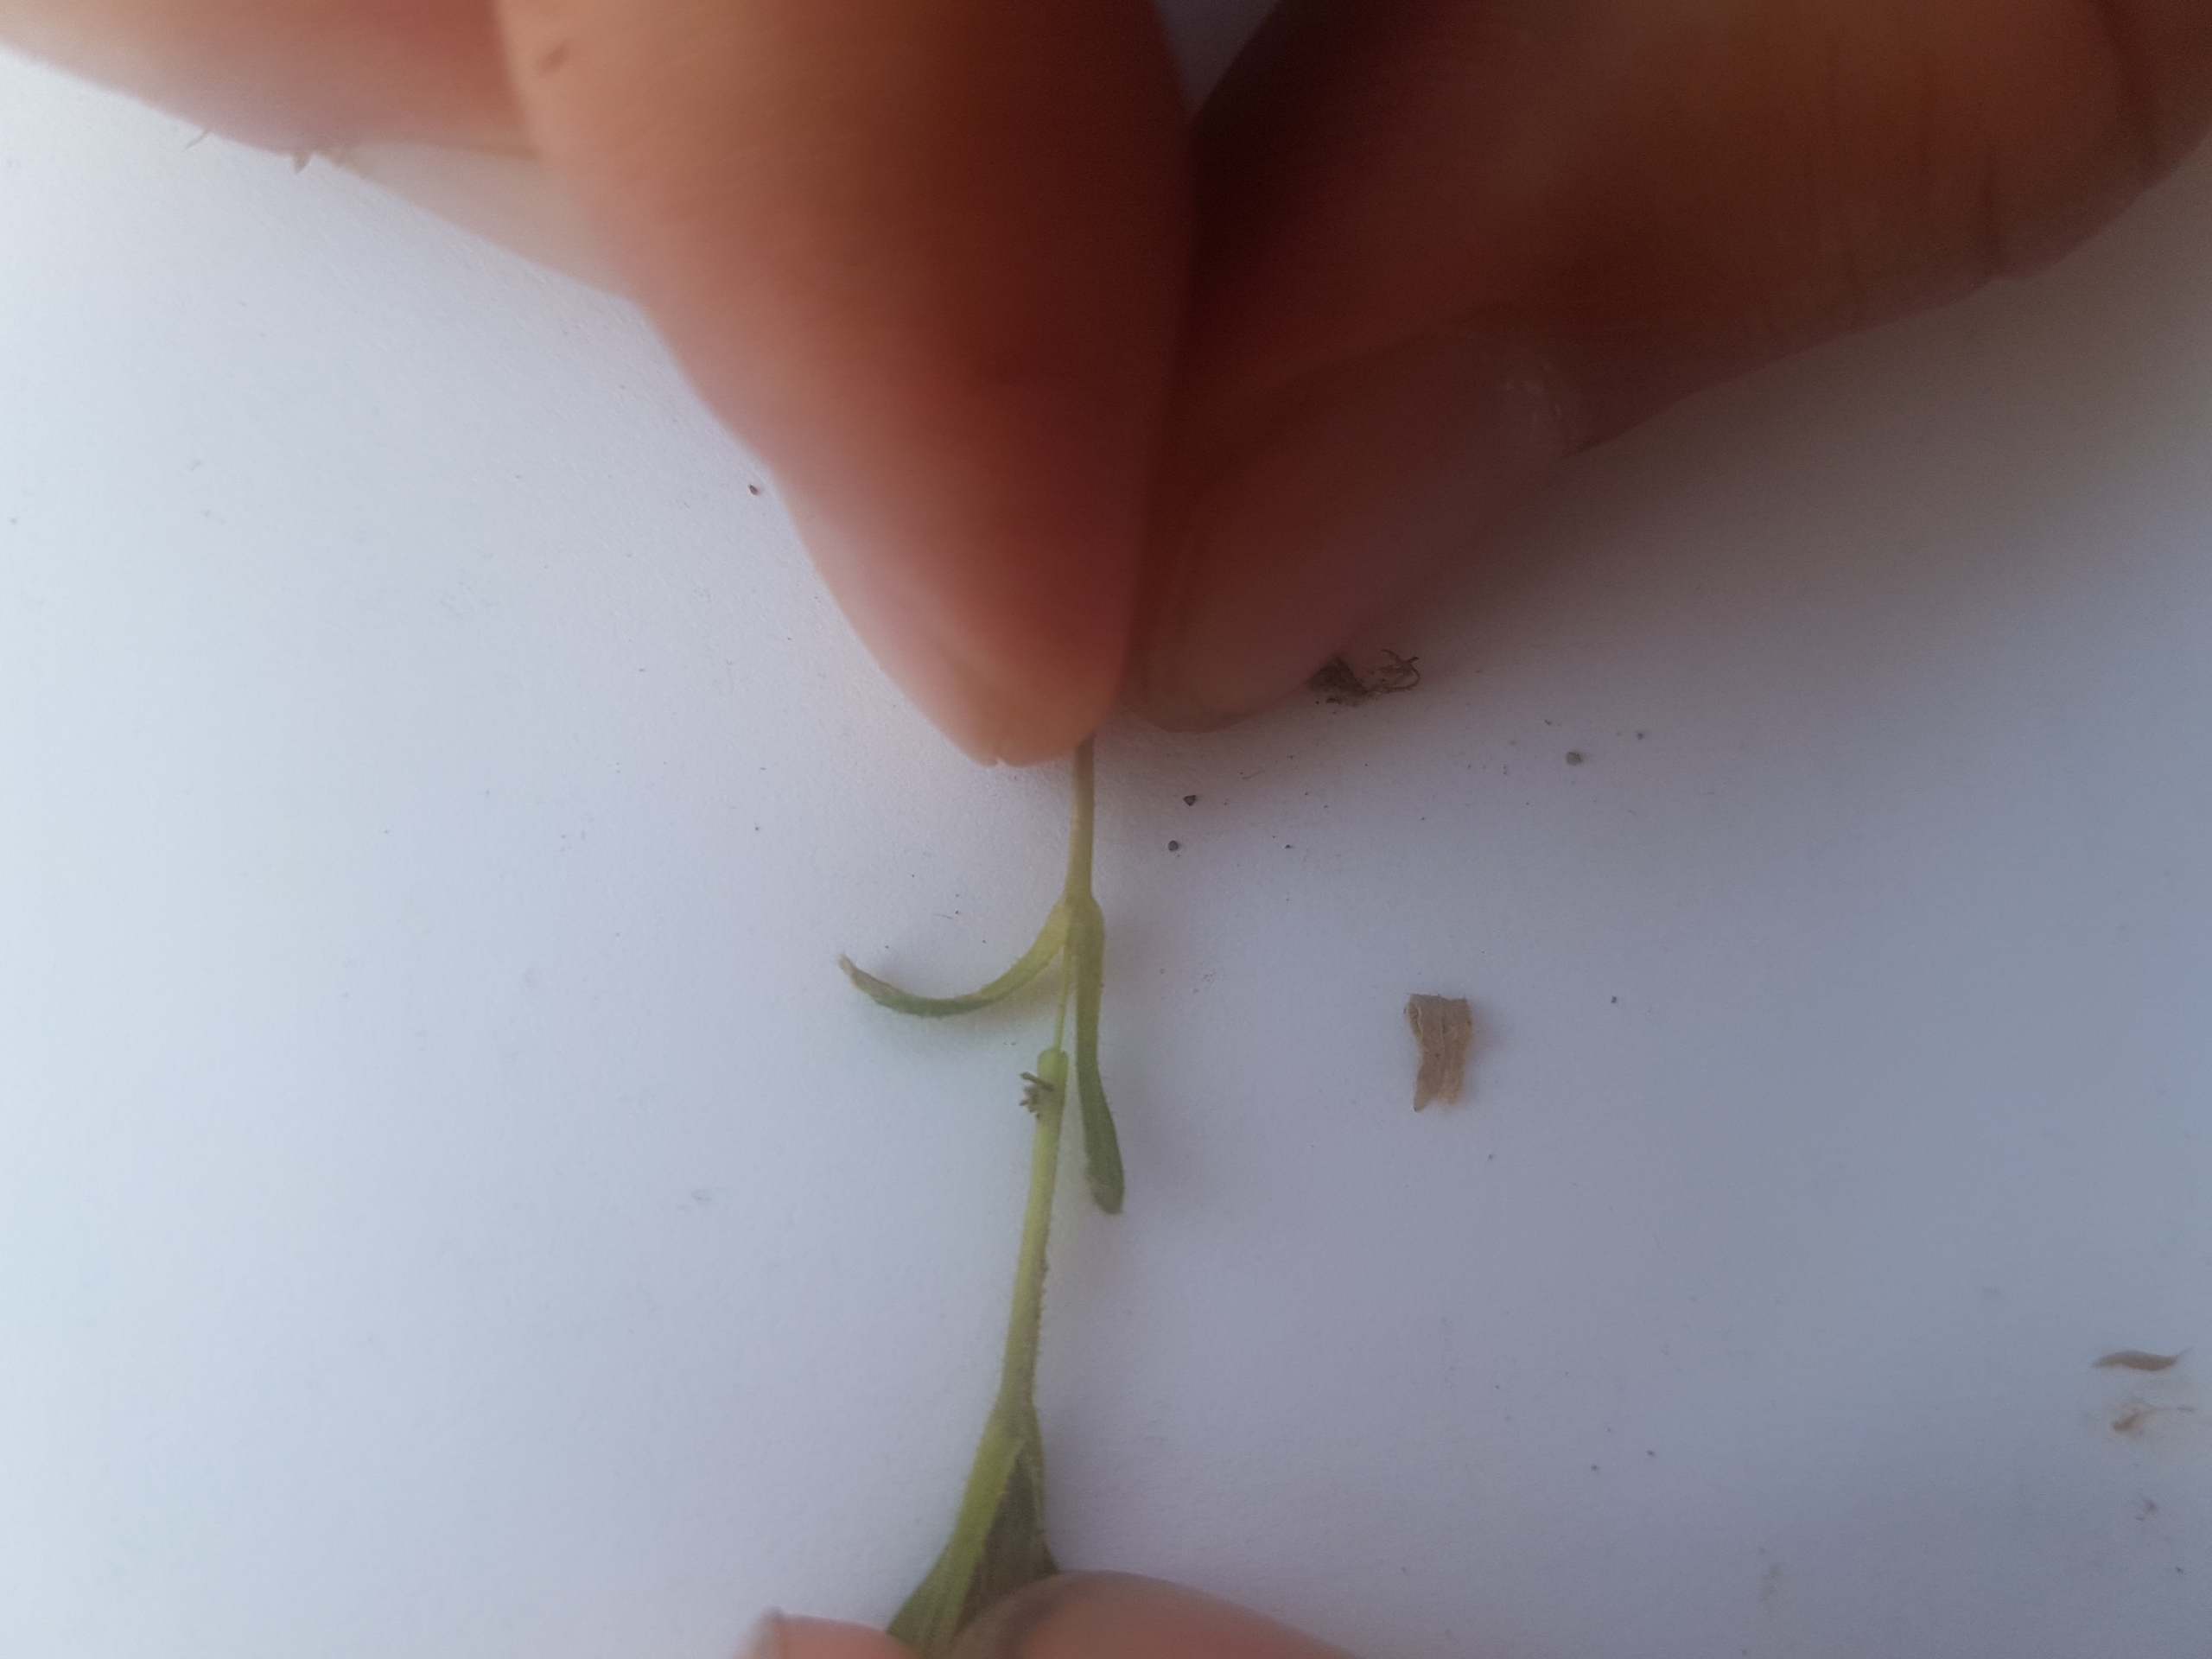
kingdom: Plantae
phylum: Tracheophyta
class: Magnoliopsida
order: Caryophyllales
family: Caryophyllaceae
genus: Cerastium
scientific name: Cerastium fontanum
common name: Almindelig hønsetarm
